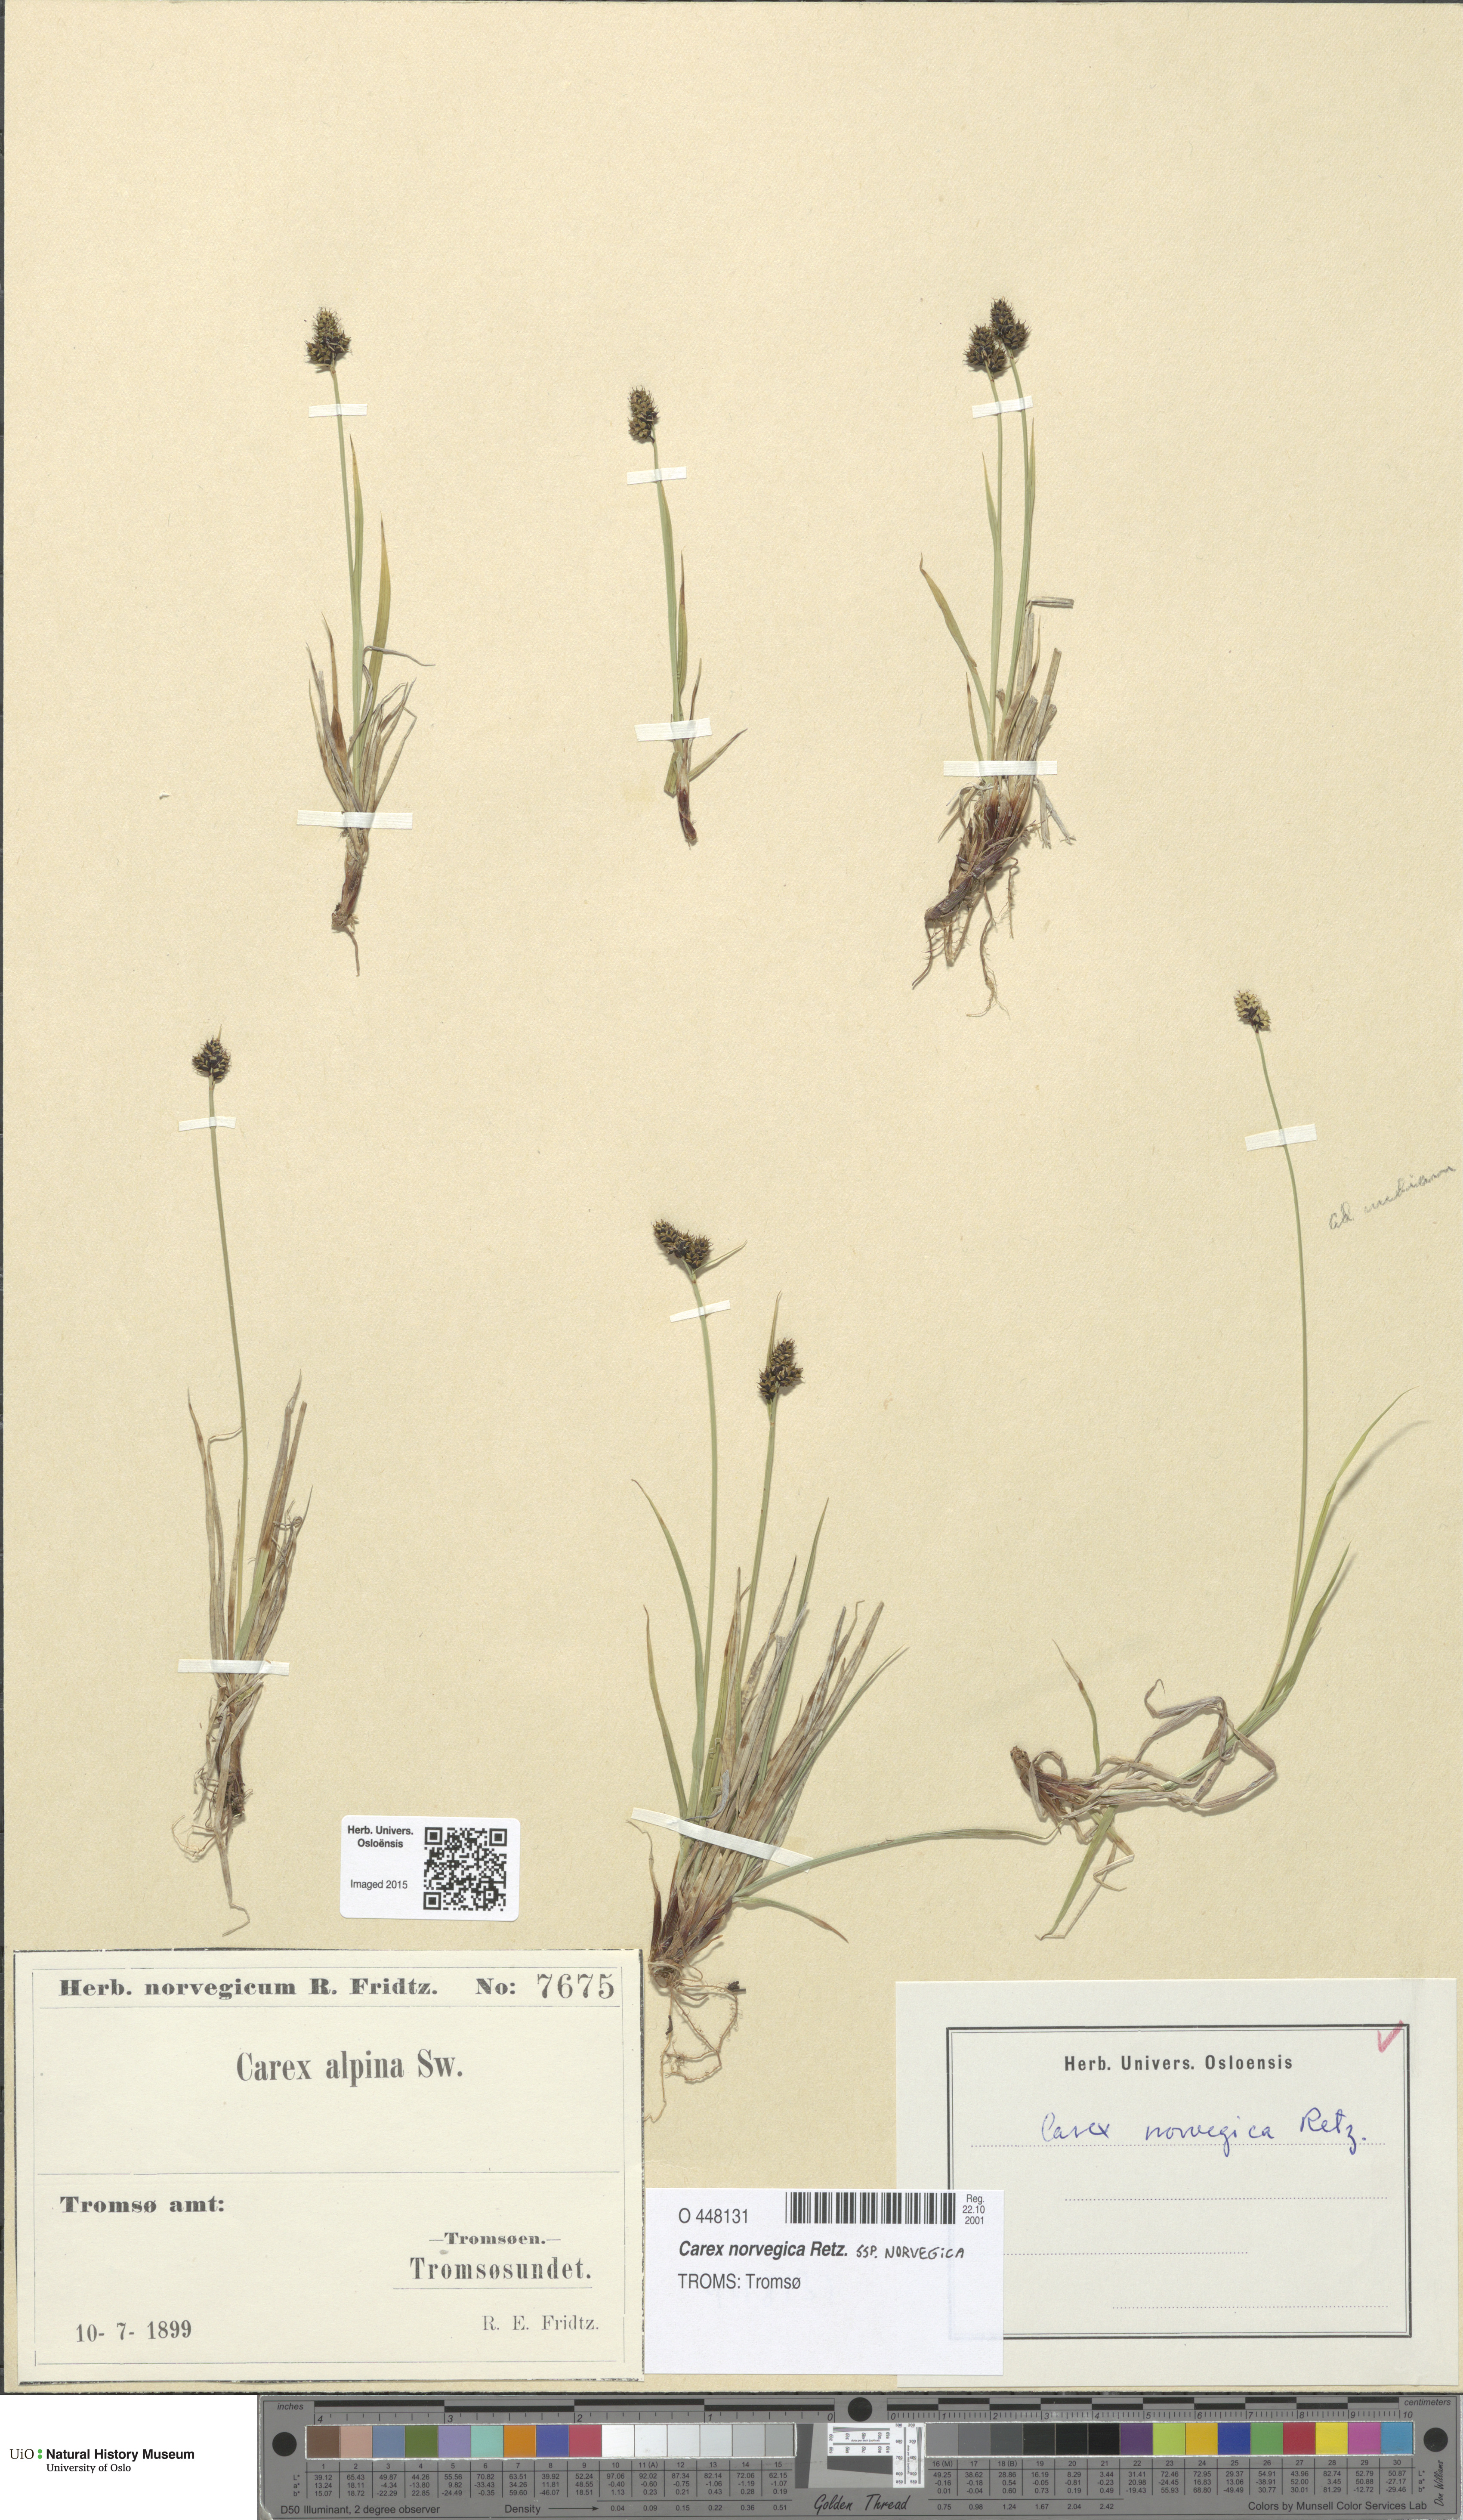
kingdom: Plantae
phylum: Tracheophyta
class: Liliopsida
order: Poales
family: Cyperaceae
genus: Carex
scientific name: Carex norvegica
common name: Close-headed alpine-sedge
